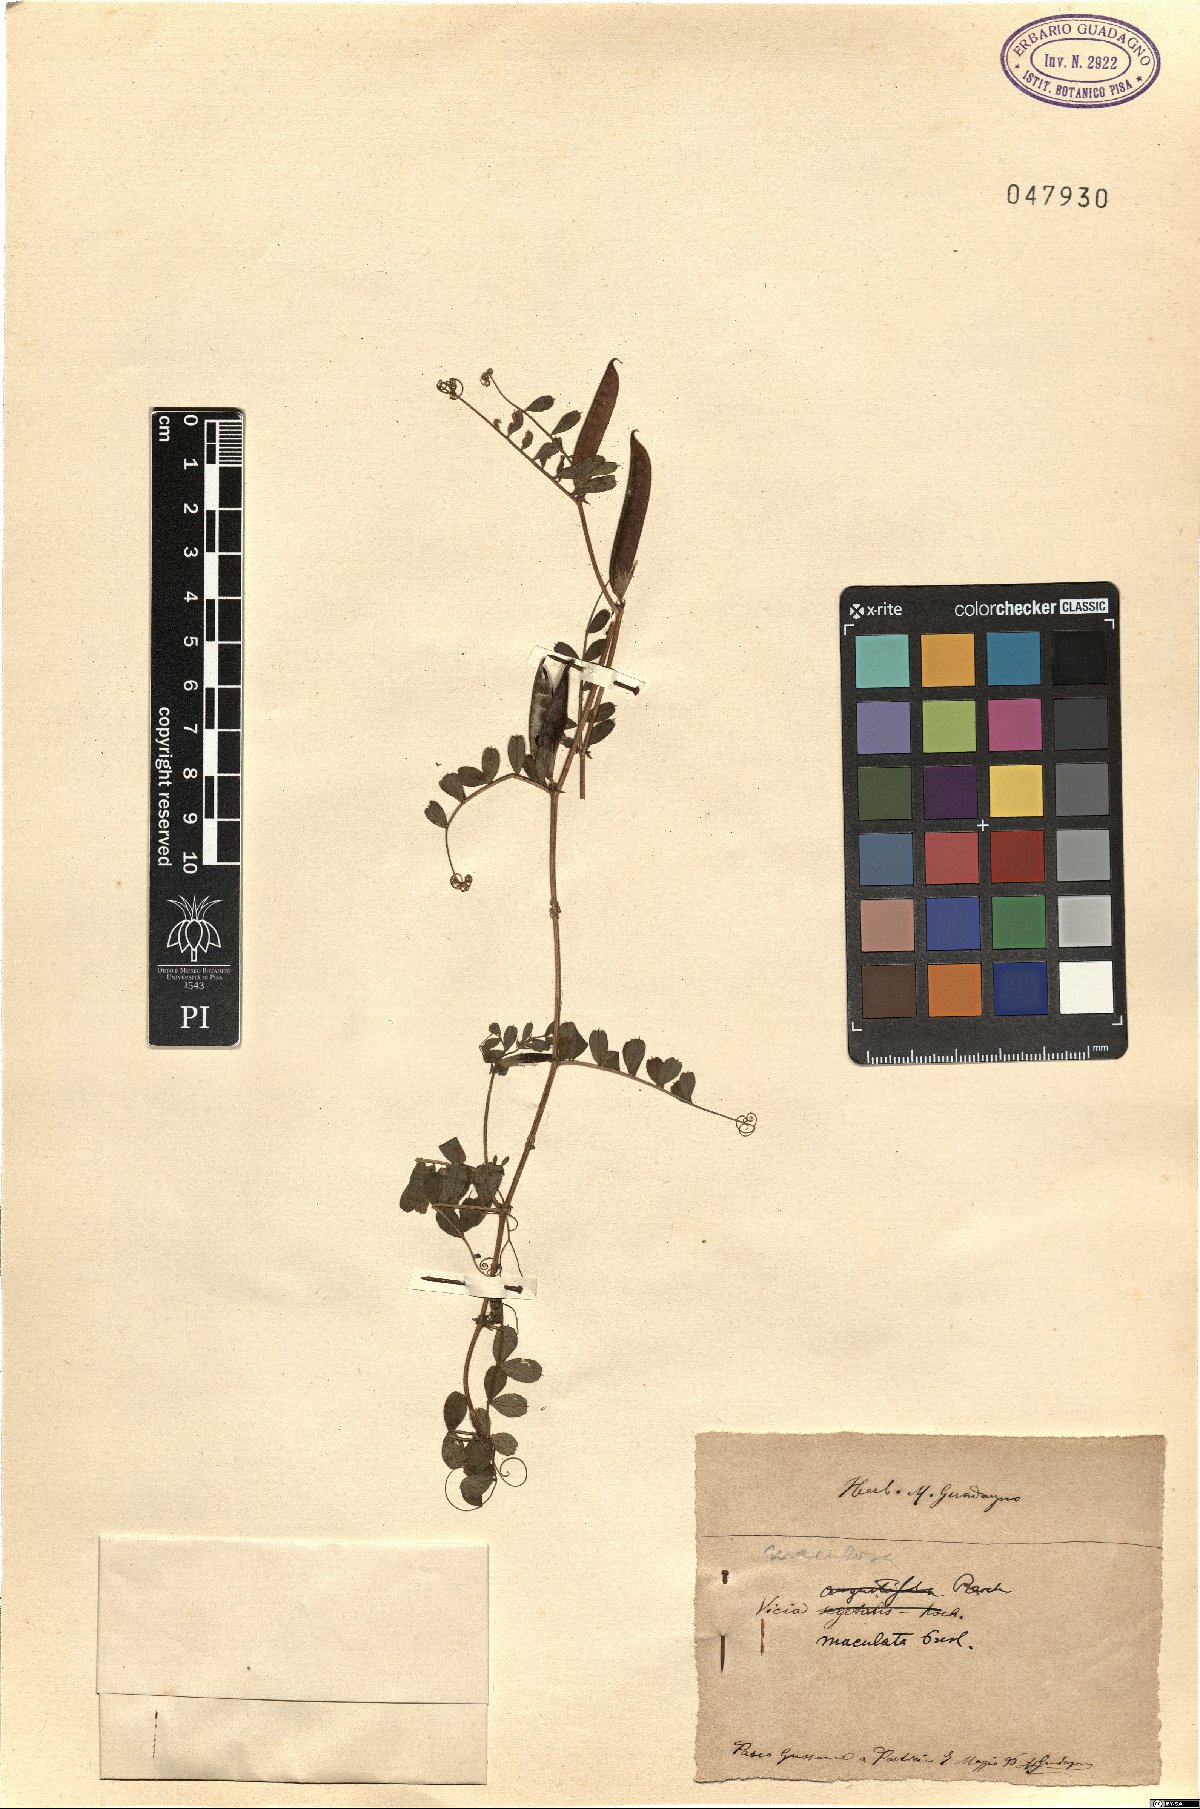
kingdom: Plantae
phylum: Tracheophyta
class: Magnoliopsida
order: Fabales
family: Fabaceae
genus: Vicia
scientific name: Vicia sativa
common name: Garden vetch
